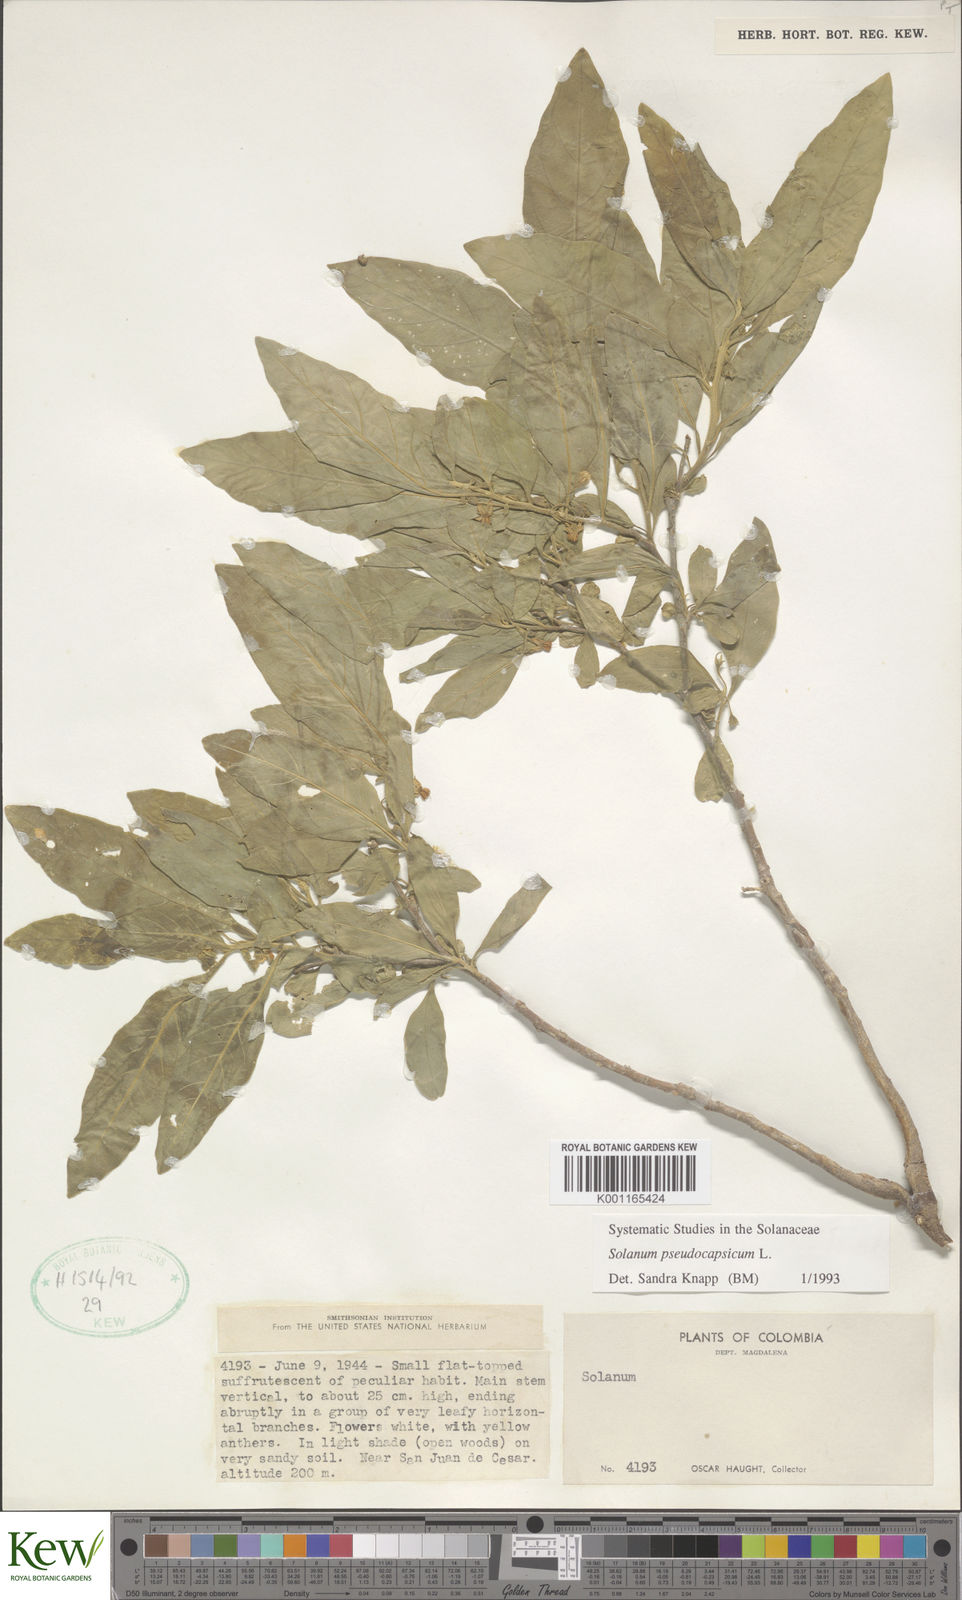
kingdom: Plantae
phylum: Tracheophyta
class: Magnoliopsida
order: Solanales
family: Solanaceae
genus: Solanum
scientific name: Solanum pseudocapsicum
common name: Jerusalem cherry
